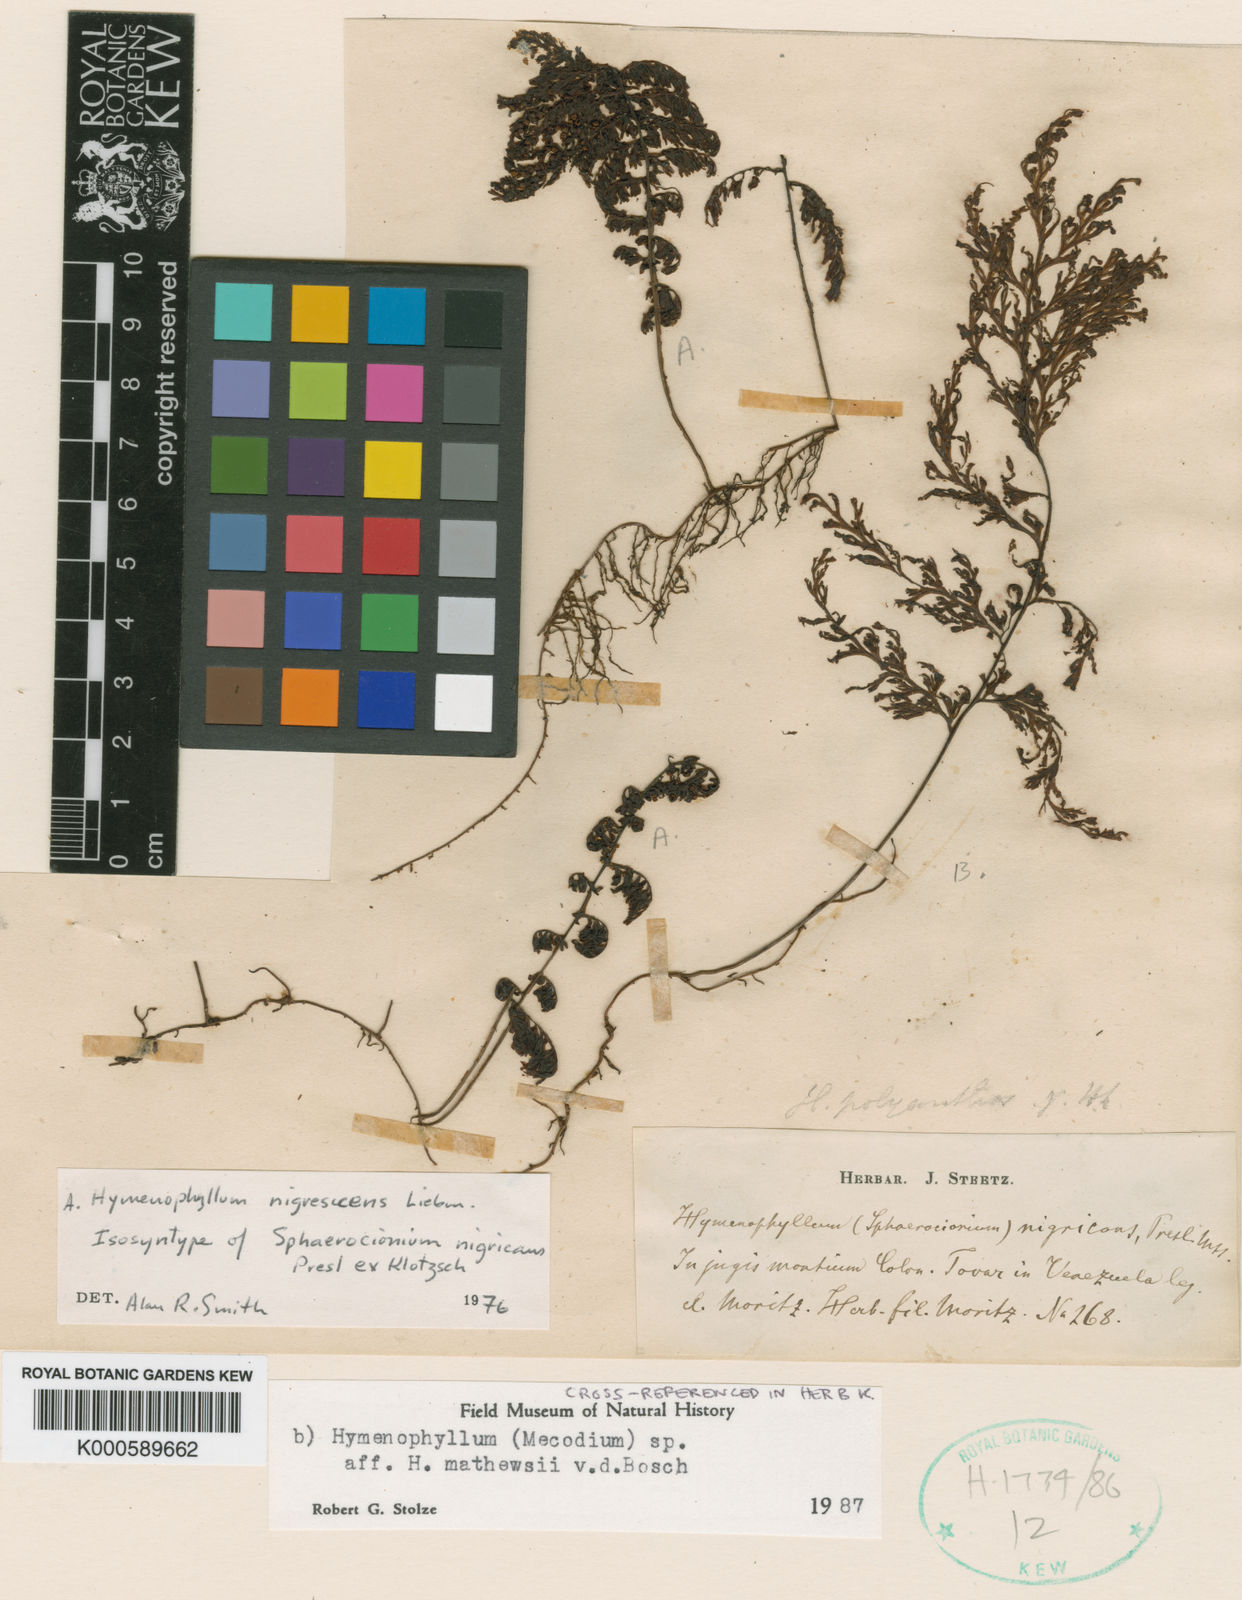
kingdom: Plantae
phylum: Tracheophyta
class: Polypodiopsida
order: Hymenophyllales
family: Hymenophyllaceae
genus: Hymenophyllum
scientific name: Hymenophyllum myriocarpum
